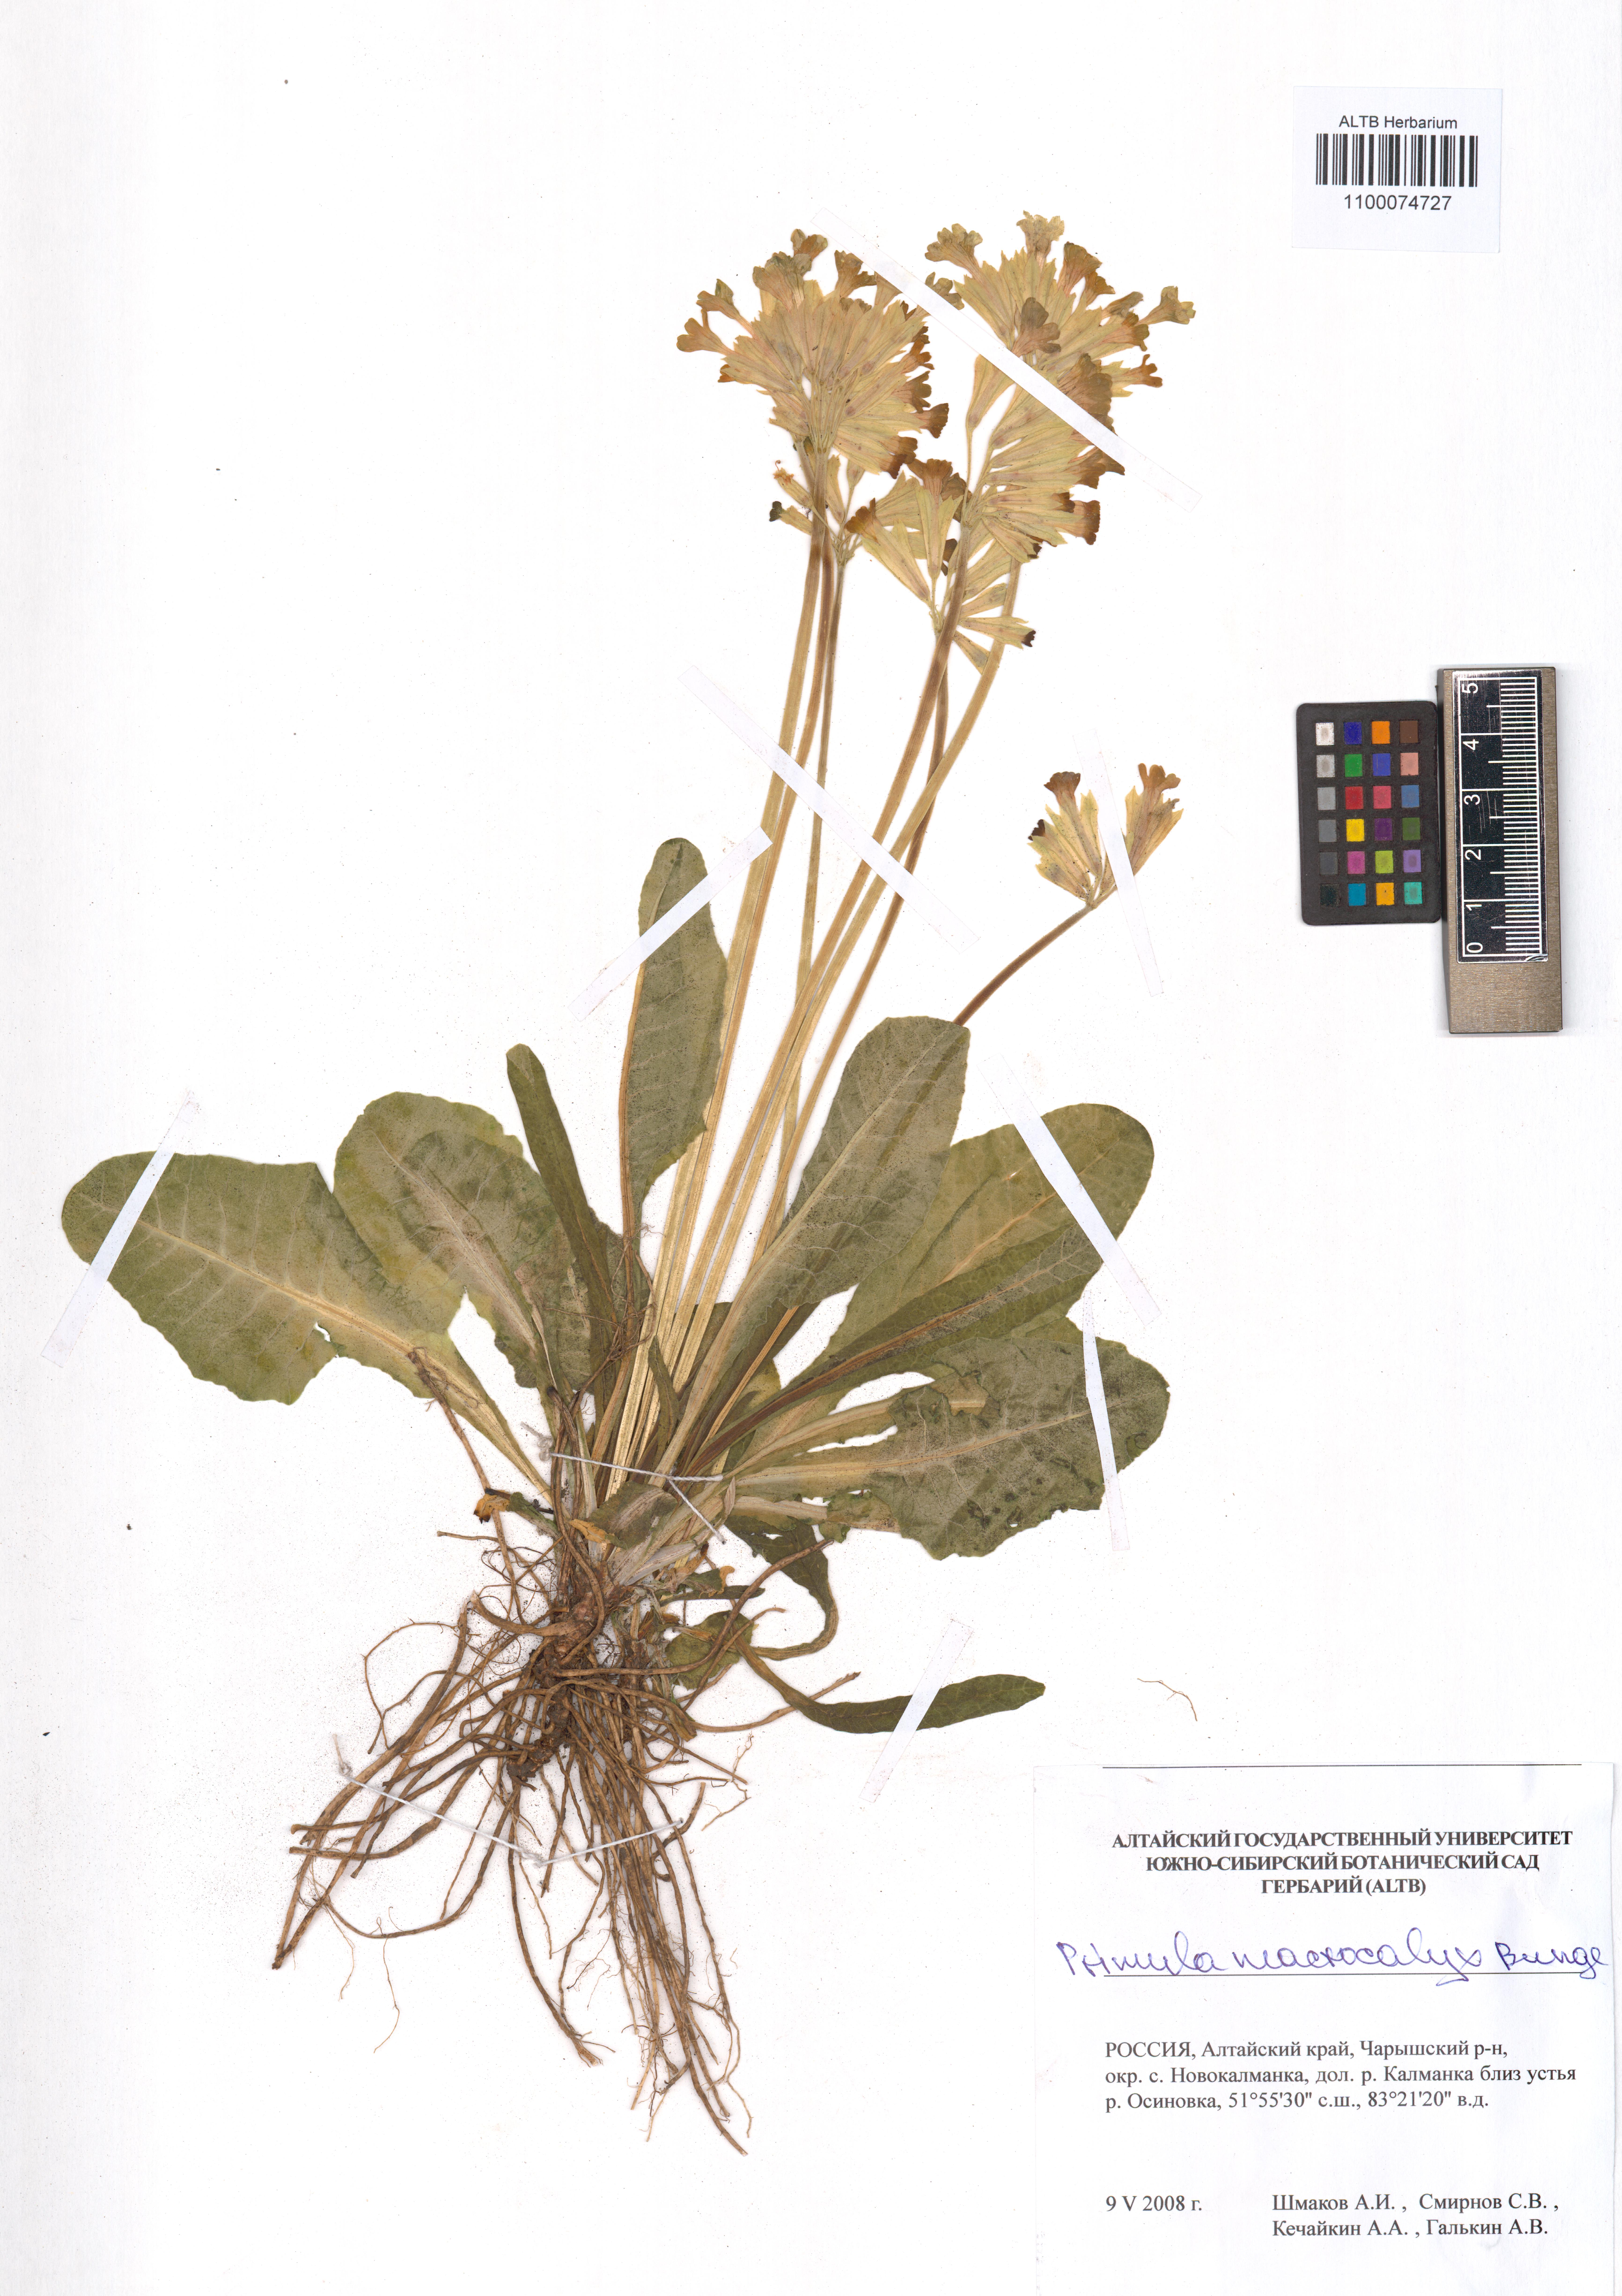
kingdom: Plantae
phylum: Tracheophyta
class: Magnoliopsida
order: Ericales
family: Primulaceae
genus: Primula
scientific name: Primula veris
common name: Cowslip
